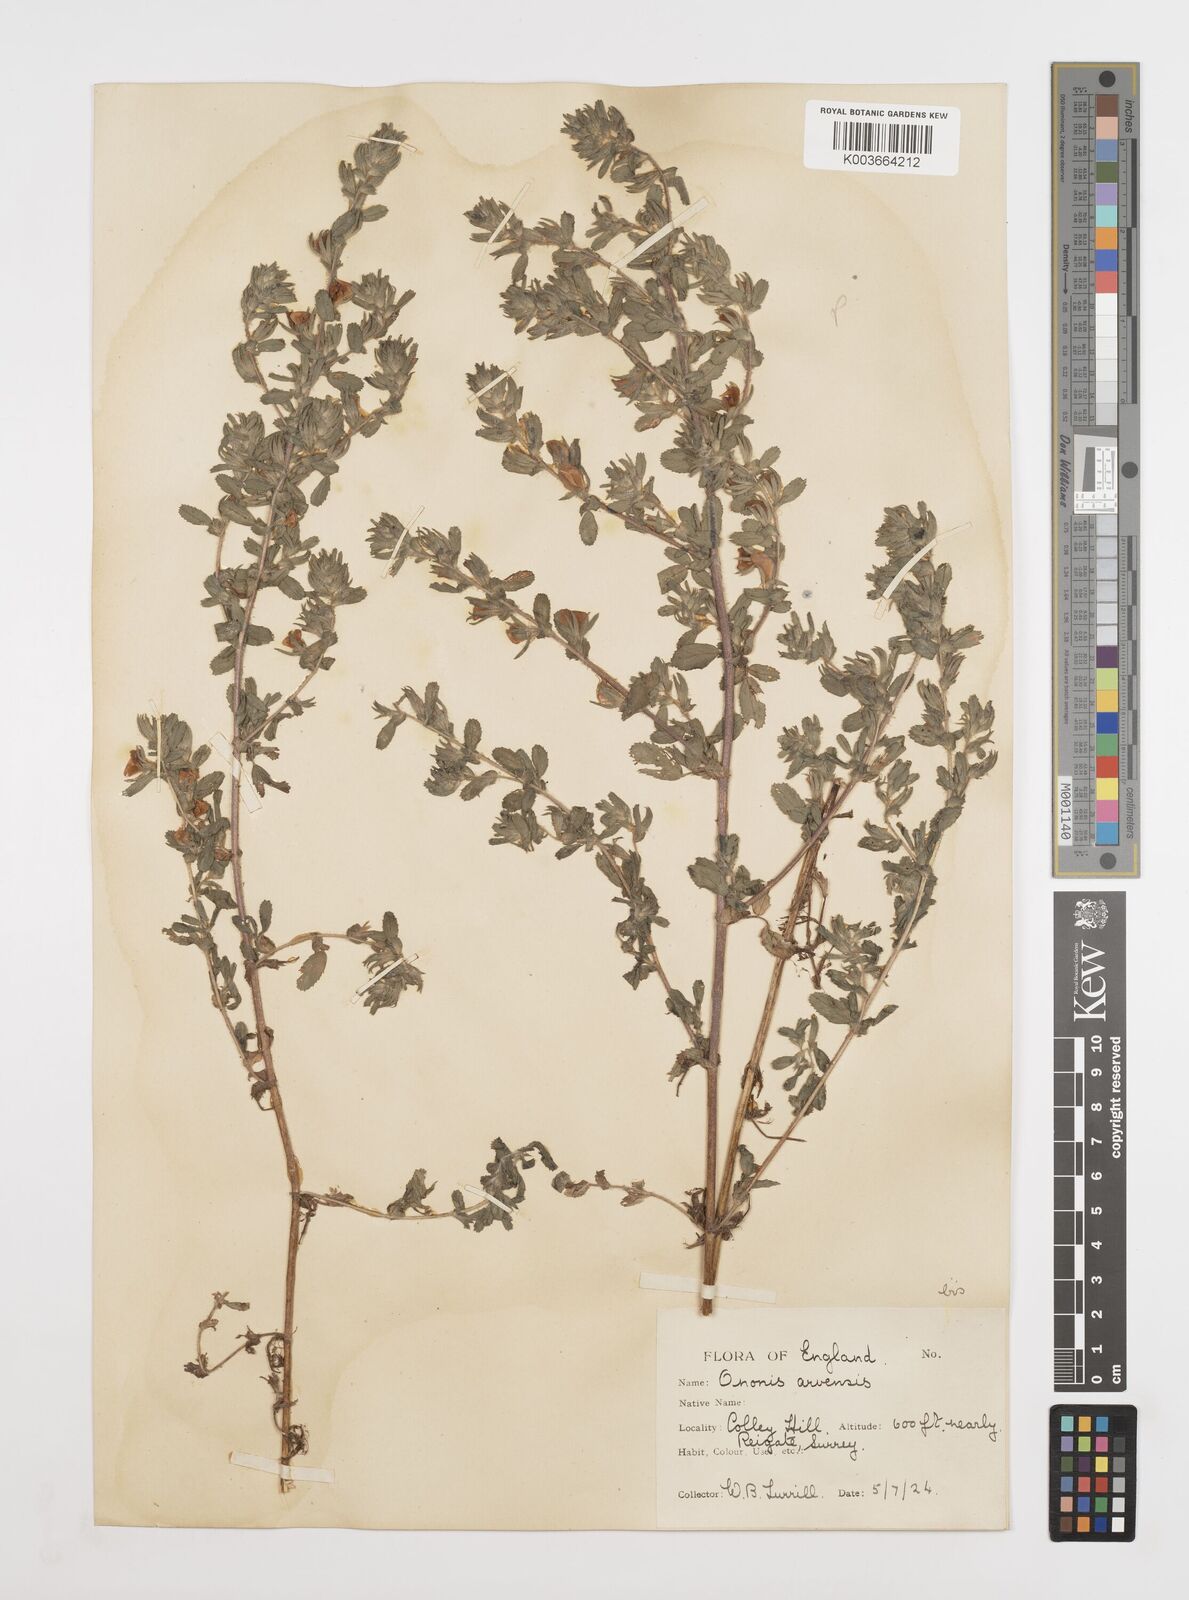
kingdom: Plantae
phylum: Tracheophyta
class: Magnoliopsida
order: Fabales
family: Fabaceae
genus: Ononis
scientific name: Ononis spinosa
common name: Spiny restharrow
